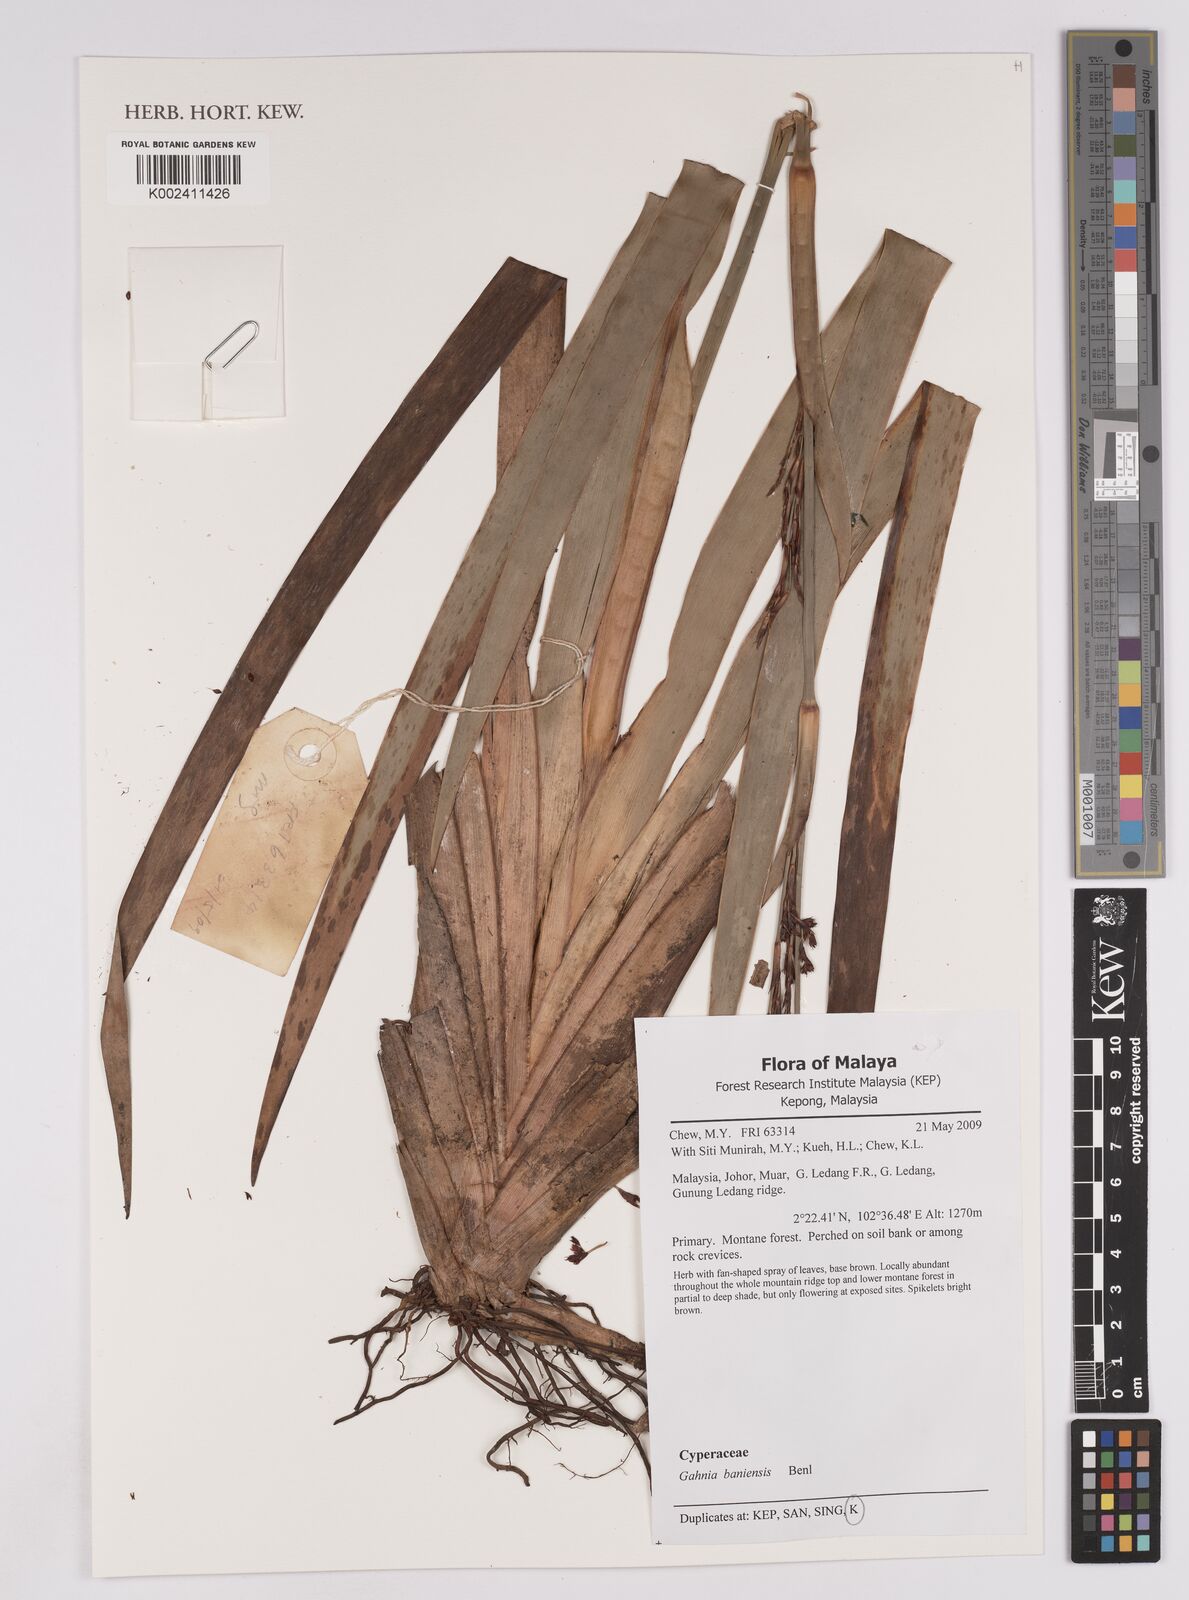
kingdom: Plantae
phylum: Tracheophyta
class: Liliopsida
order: Poales
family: Cyperaceae
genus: Gahnia
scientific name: Gahnia baniensis
